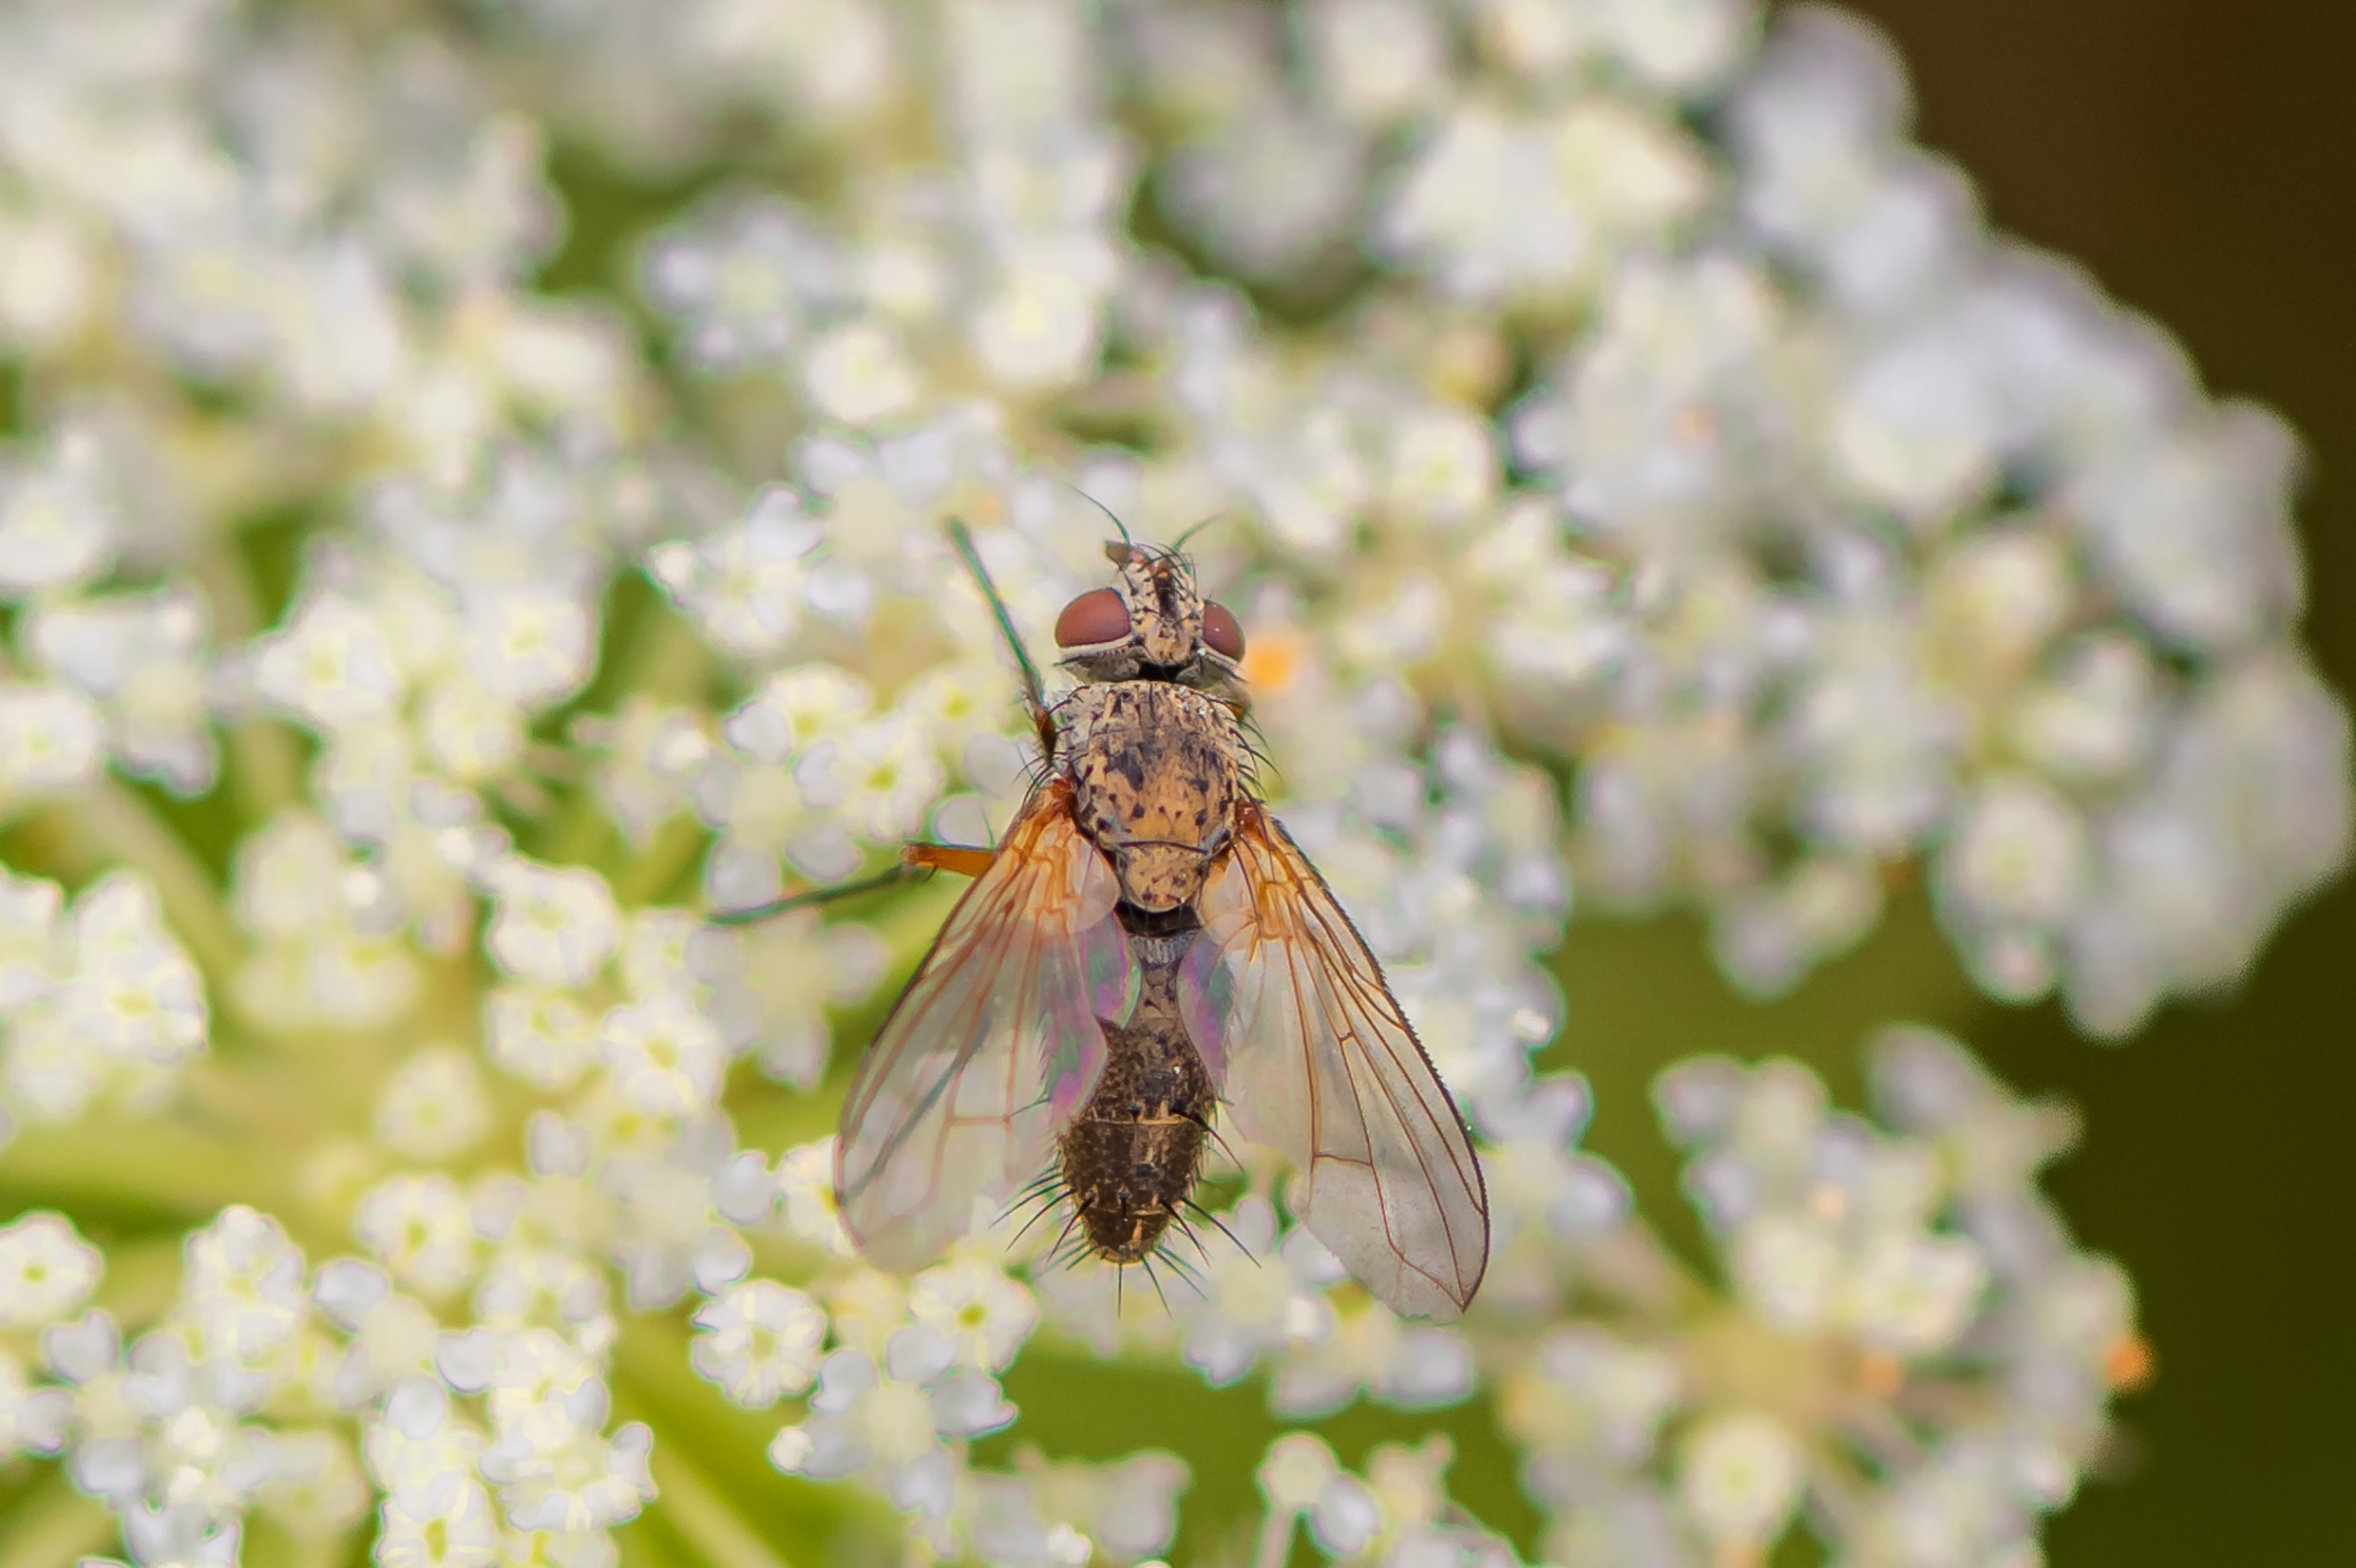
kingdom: Animalia
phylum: Arthropoda
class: Insecta
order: Diptera
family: Tachinidae
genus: Solieria
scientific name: Solieria pacifica
